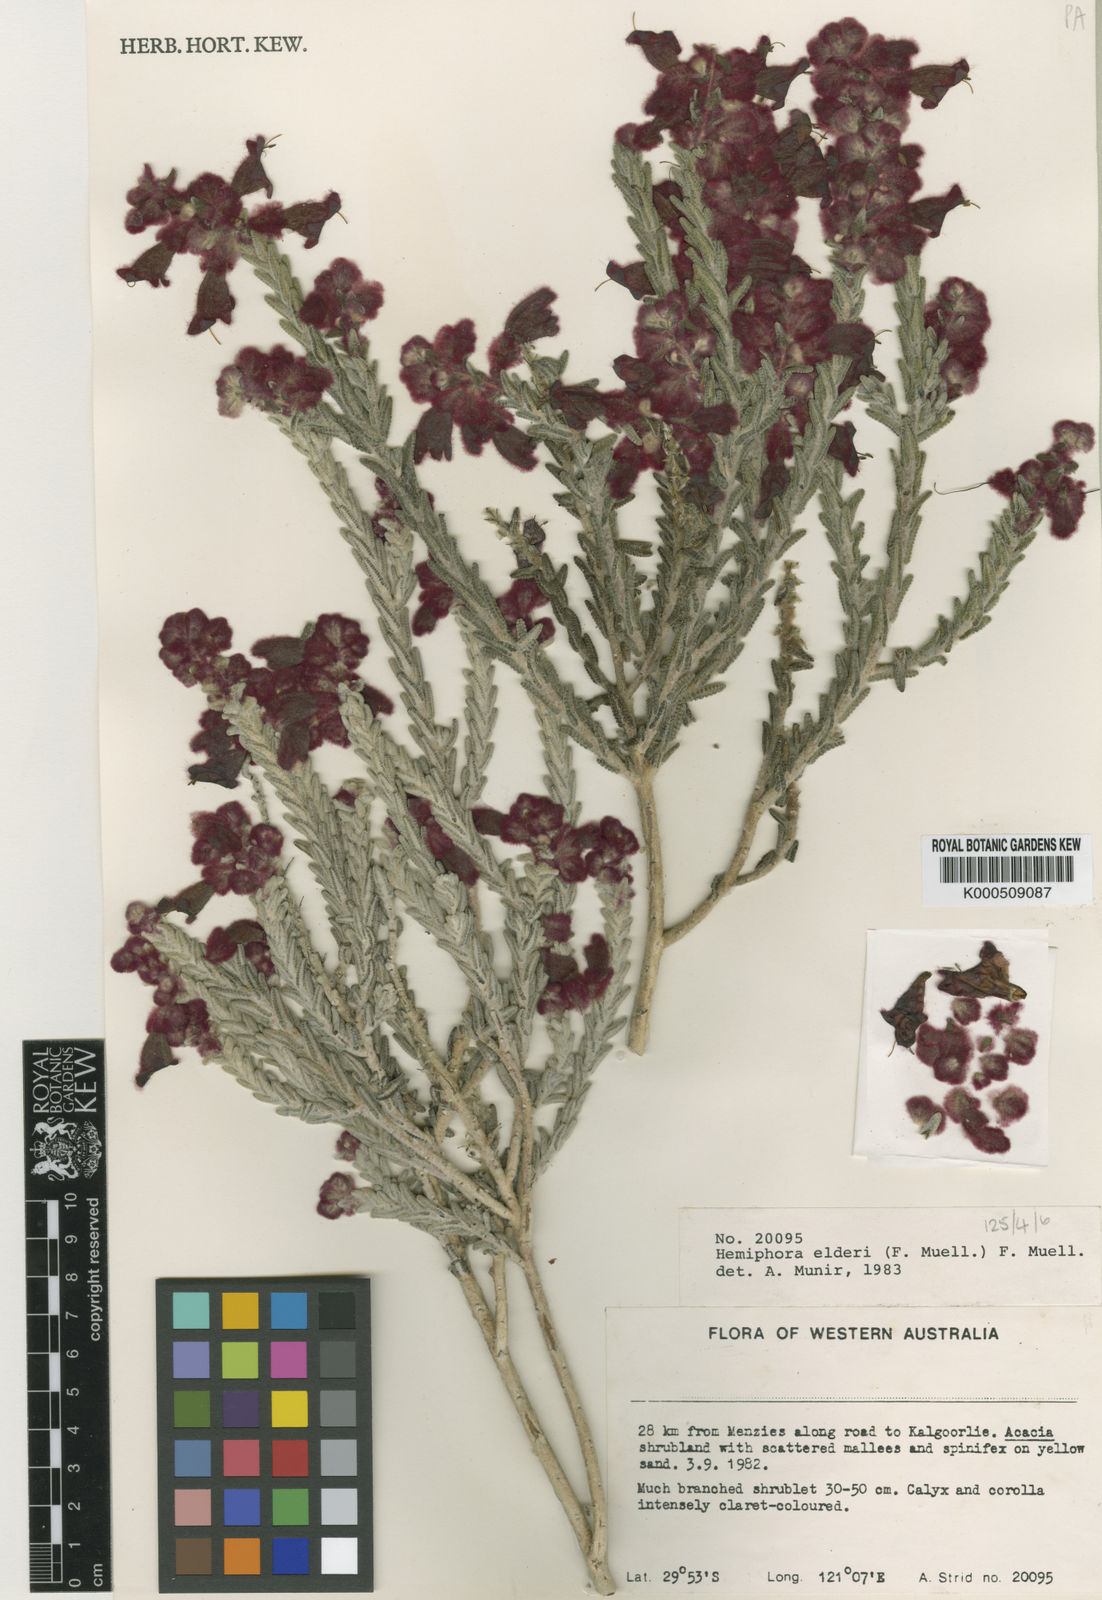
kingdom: Plantae
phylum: Tracheophyta
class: Magnoliopsida
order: Lamiales
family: Lamiaceae
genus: Hemiphora
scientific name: Hemiphora elderi
